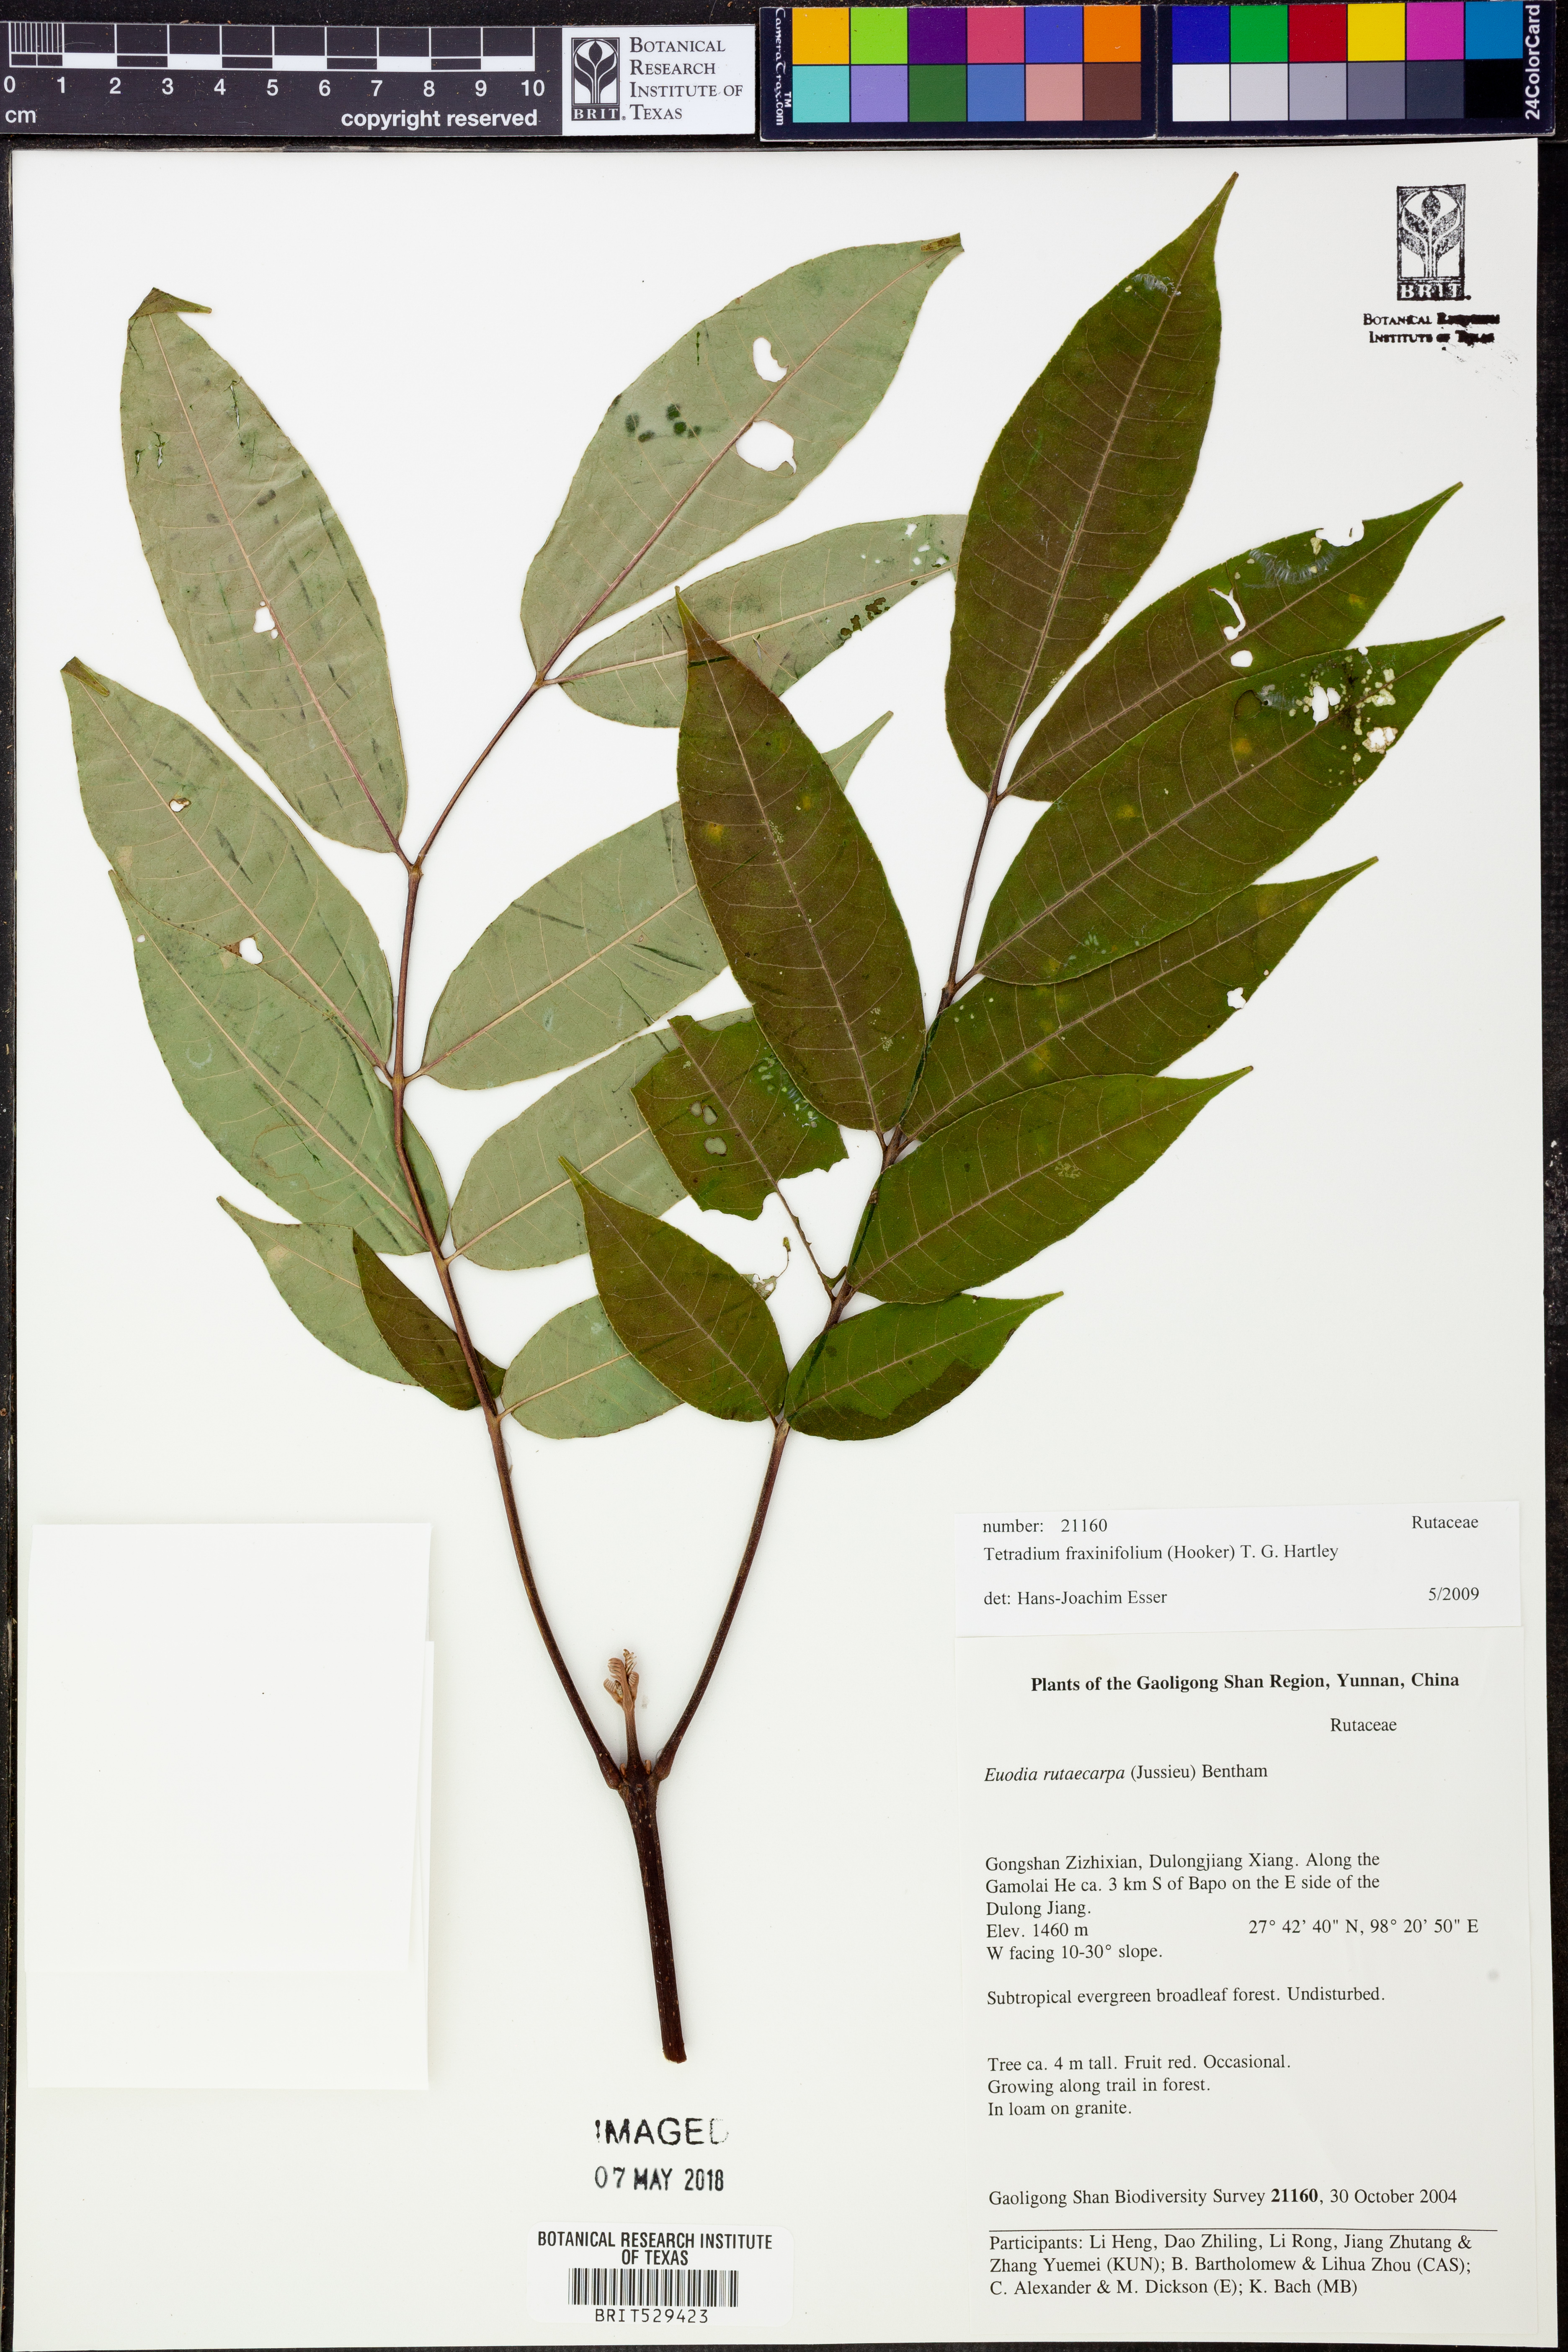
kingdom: Plantae
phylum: Tracheophyta
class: Magnoliopsida
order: Sapindales
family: Rutaceae
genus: Tetradium
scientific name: Tetradium fraxinifolium
